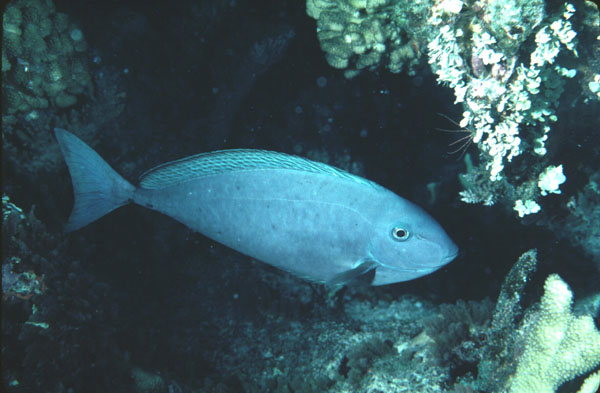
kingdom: Animalia
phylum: Chordata
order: Perciformes
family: Acanthuridae
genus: Naso
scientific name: Naso caesius
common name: Gray unicornfish
